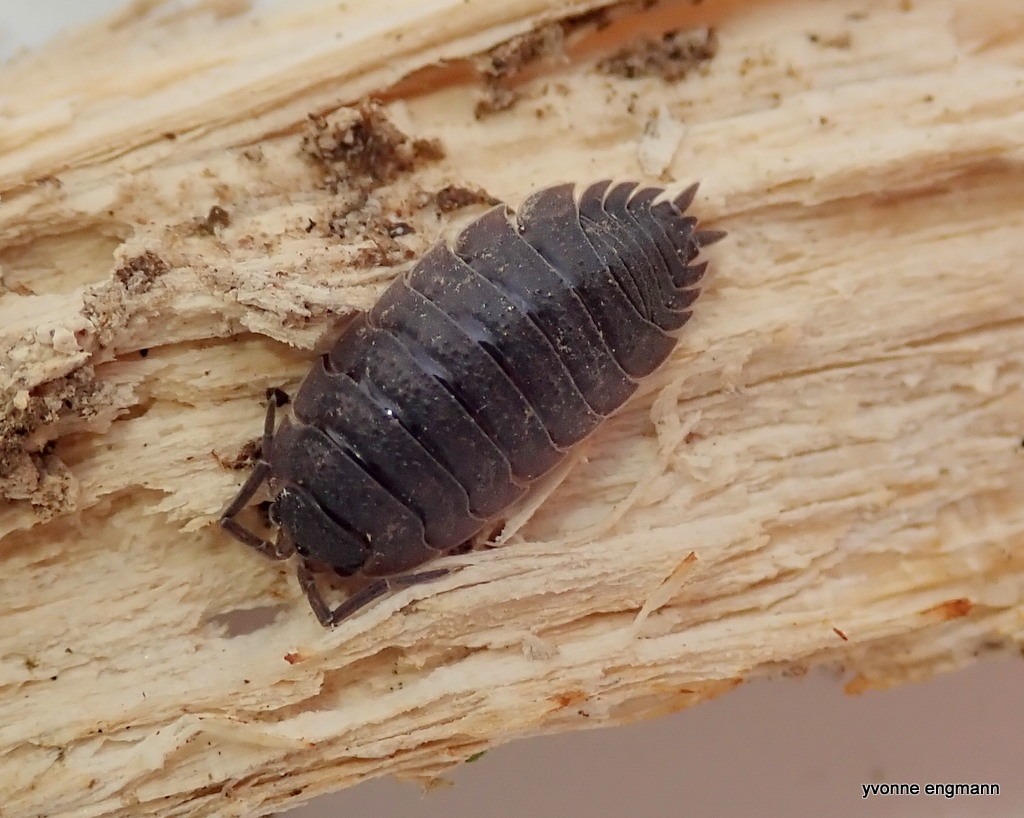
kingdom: Animalia
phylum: Arthropoda
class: Malacostraca
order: Isopoda
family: Porcellionidae
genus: Porcellio
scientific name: Porcellio scaber
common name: Grå bænkebider
